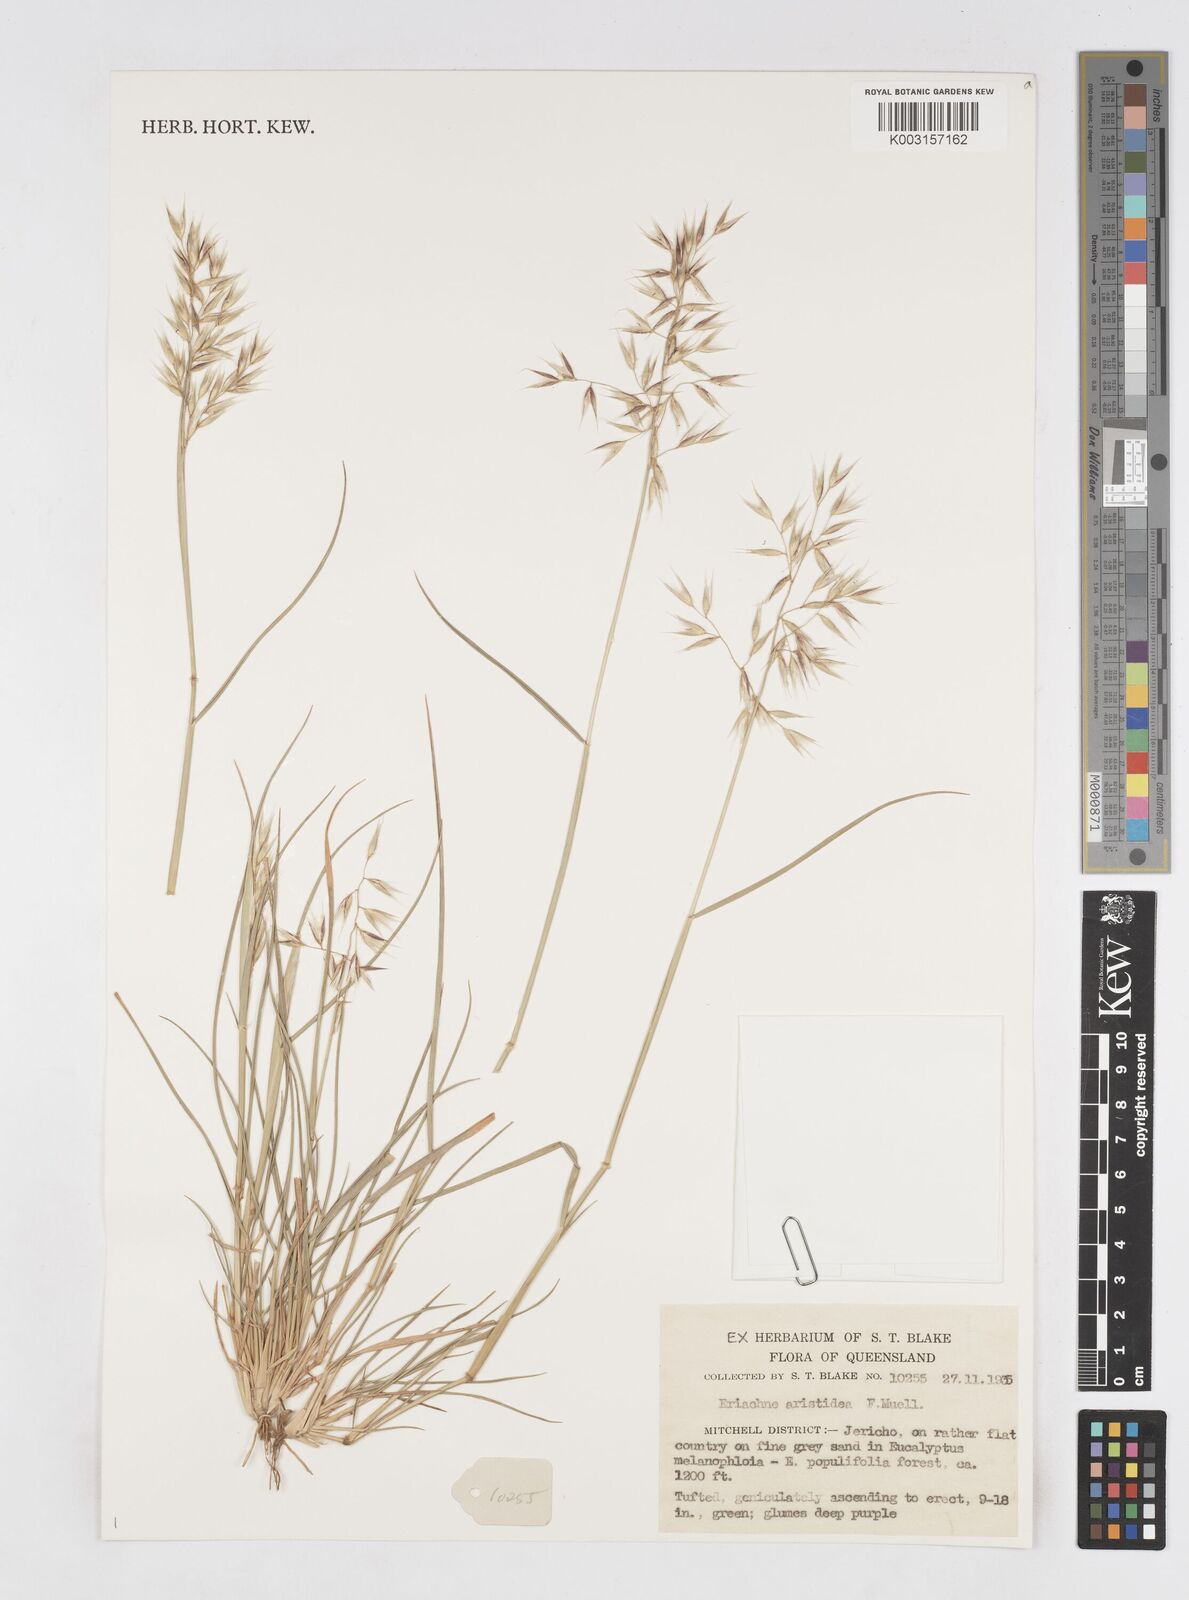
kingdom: Plantae
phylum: Tracheophyta
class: Liliopsida
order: Poales
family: Poaceae
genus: Eriachne
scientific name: Eriachne aristidea
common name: Three-awn wanderrie grass
